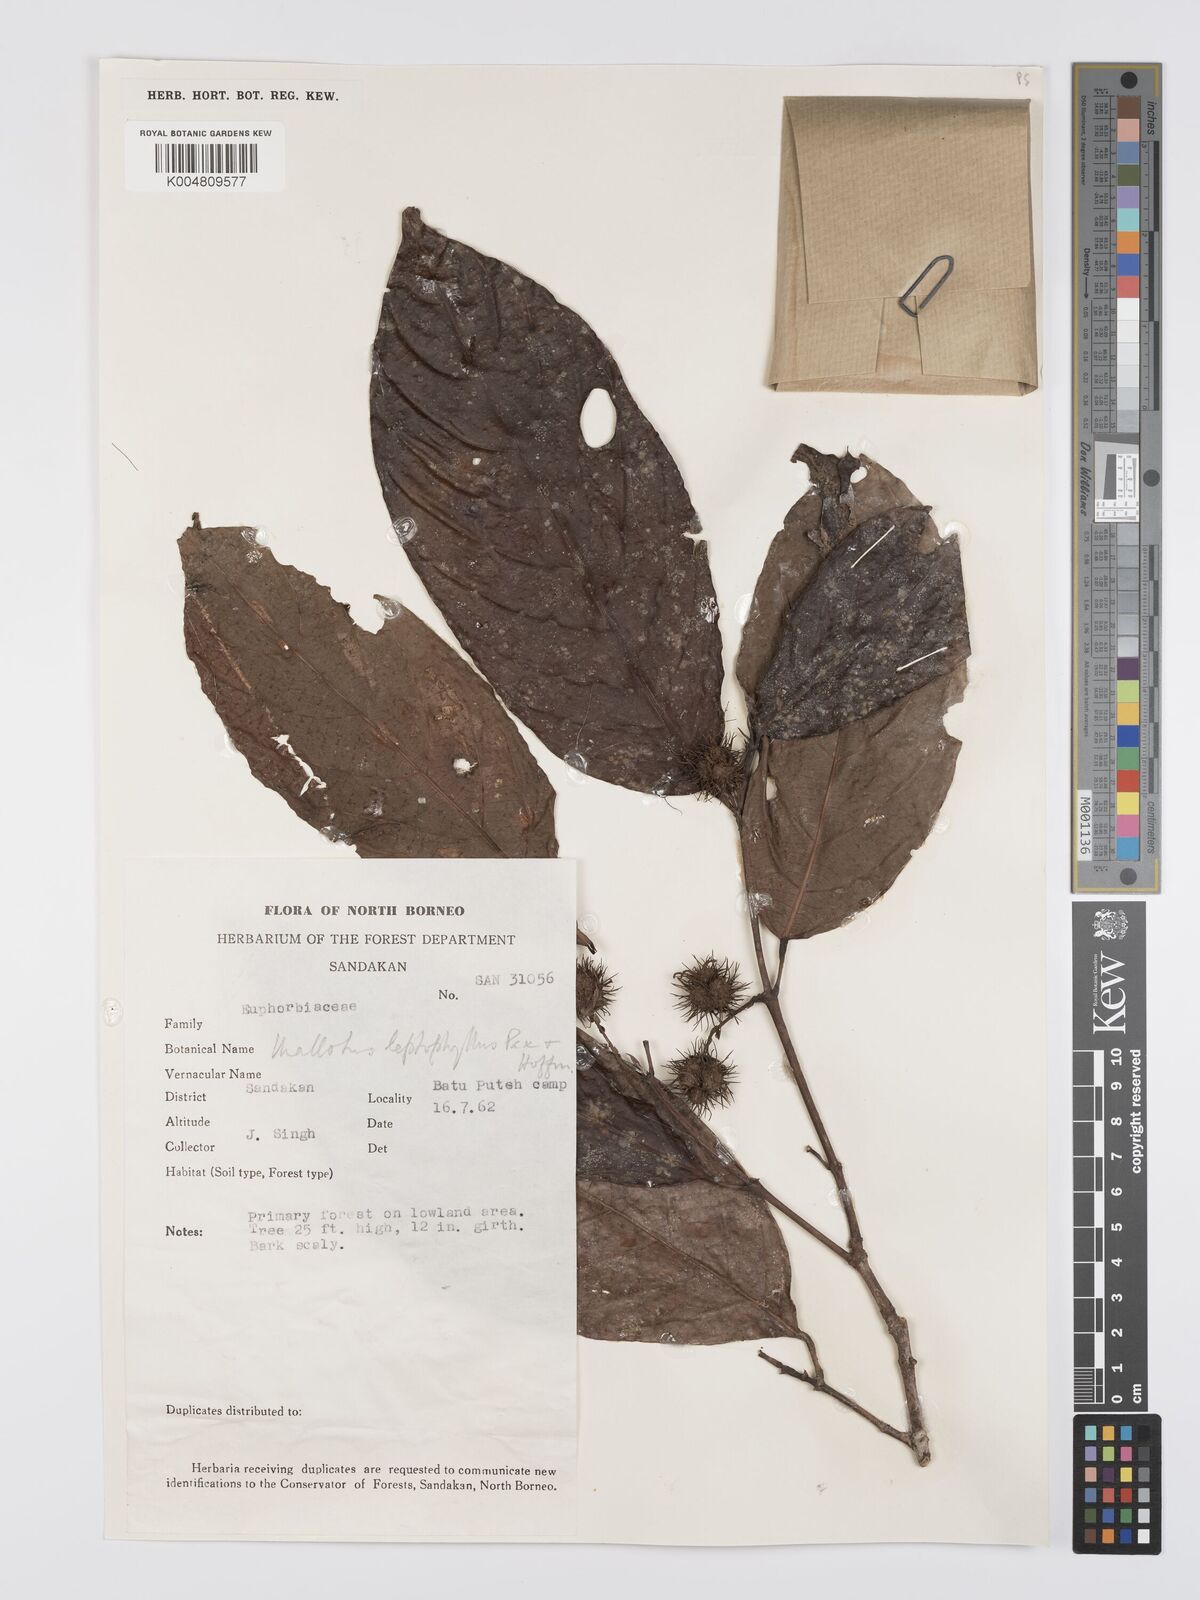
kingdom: Plantae
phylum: Tracheophyta
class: Magnoliopsida
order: Malpighiales
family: Euphorbiaceae
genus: Hancea
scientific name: Hancea penangensis
